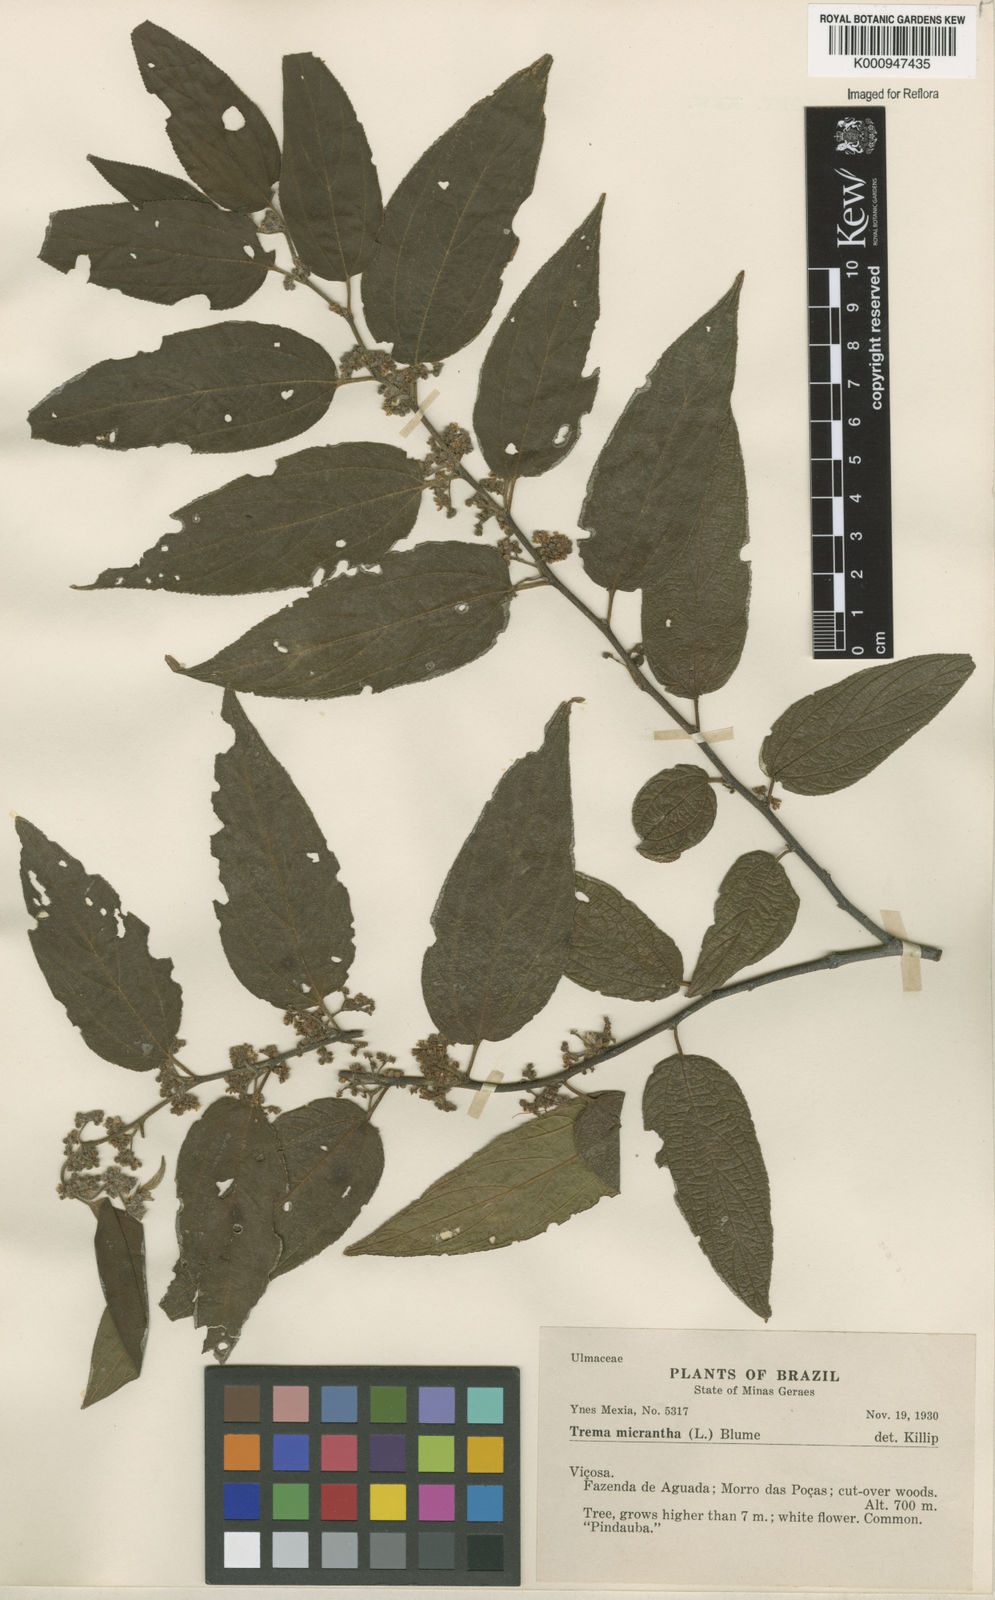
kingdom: Plantae
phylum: Tracheophyta
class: Magnoliopsida
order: Rosales
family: Cannabaceae
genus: Trema
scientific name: Trema micranthum
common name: Jamaican nettletree
